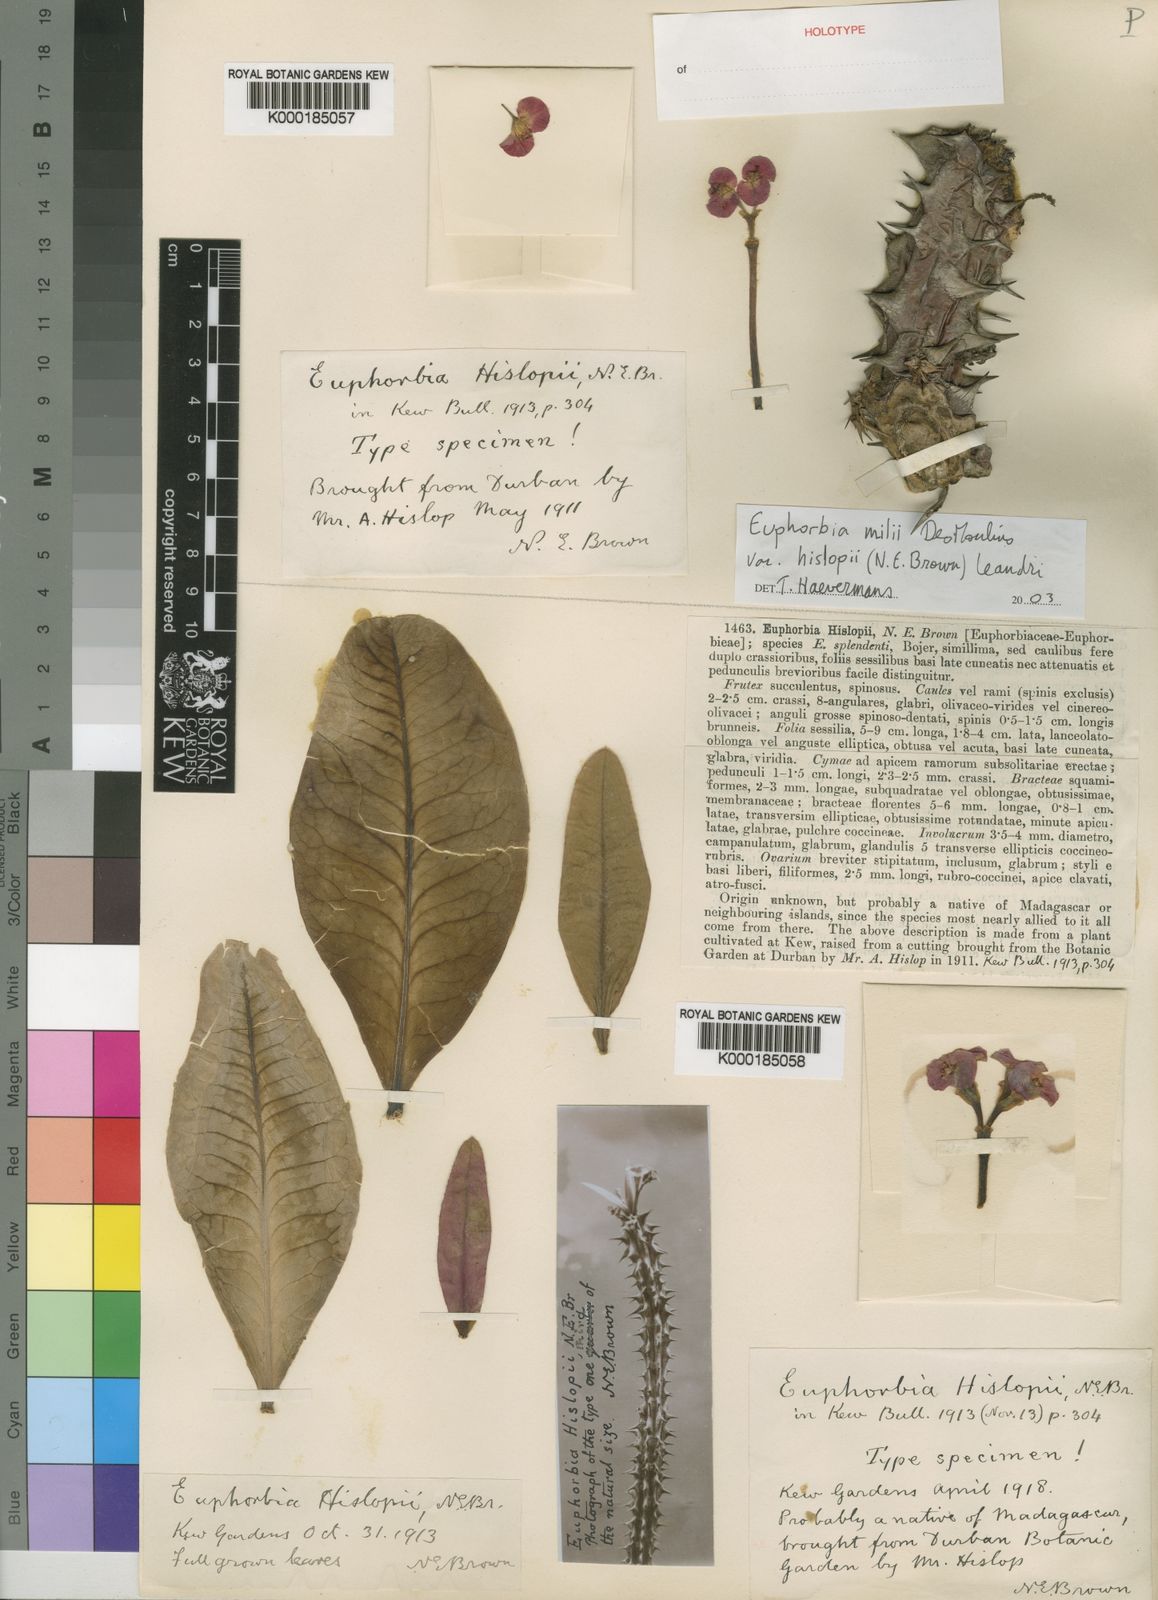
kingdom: Plantae
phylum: Tracheophyta
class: Magnoliopsida
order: Malpighiales
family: Euphorbiaceae
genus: Euphorbia
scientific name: Euphorbia hislopii
